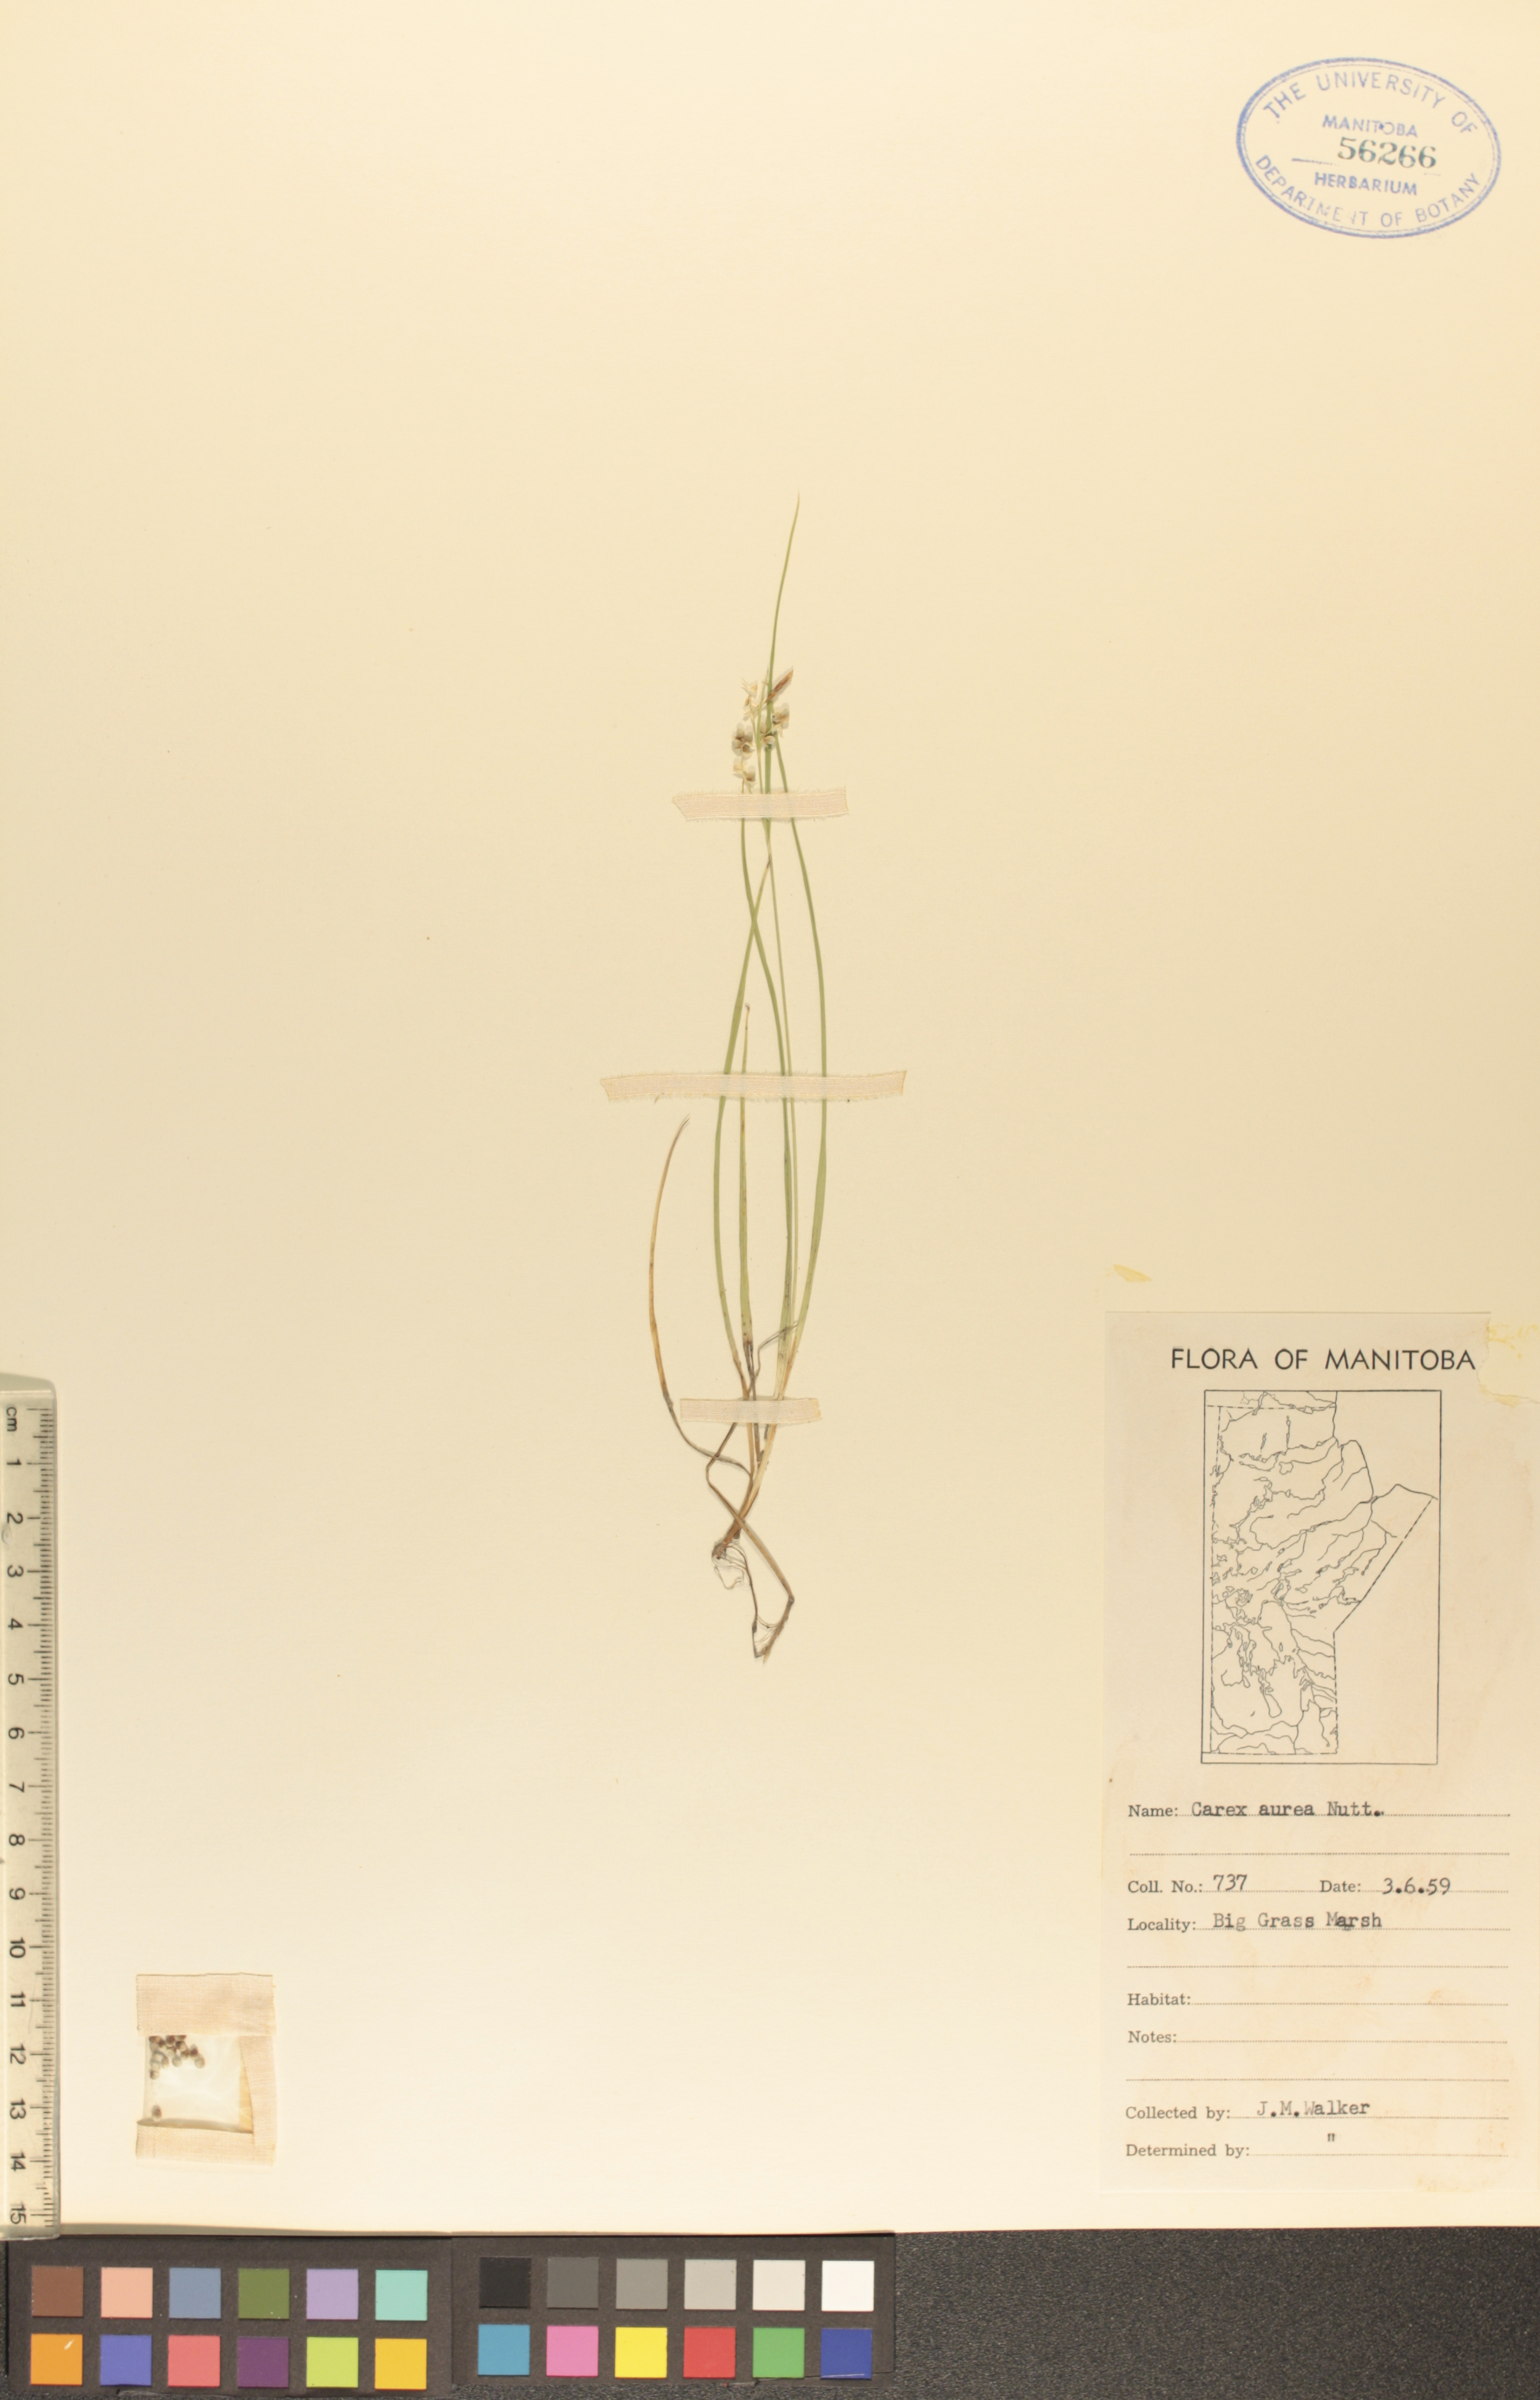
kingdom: Plantae
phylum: Tracheophyta
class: Liliopsida
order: Poales
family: Cyperaceae
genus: Carex
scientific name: Carex aurea
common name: Golden sedge
